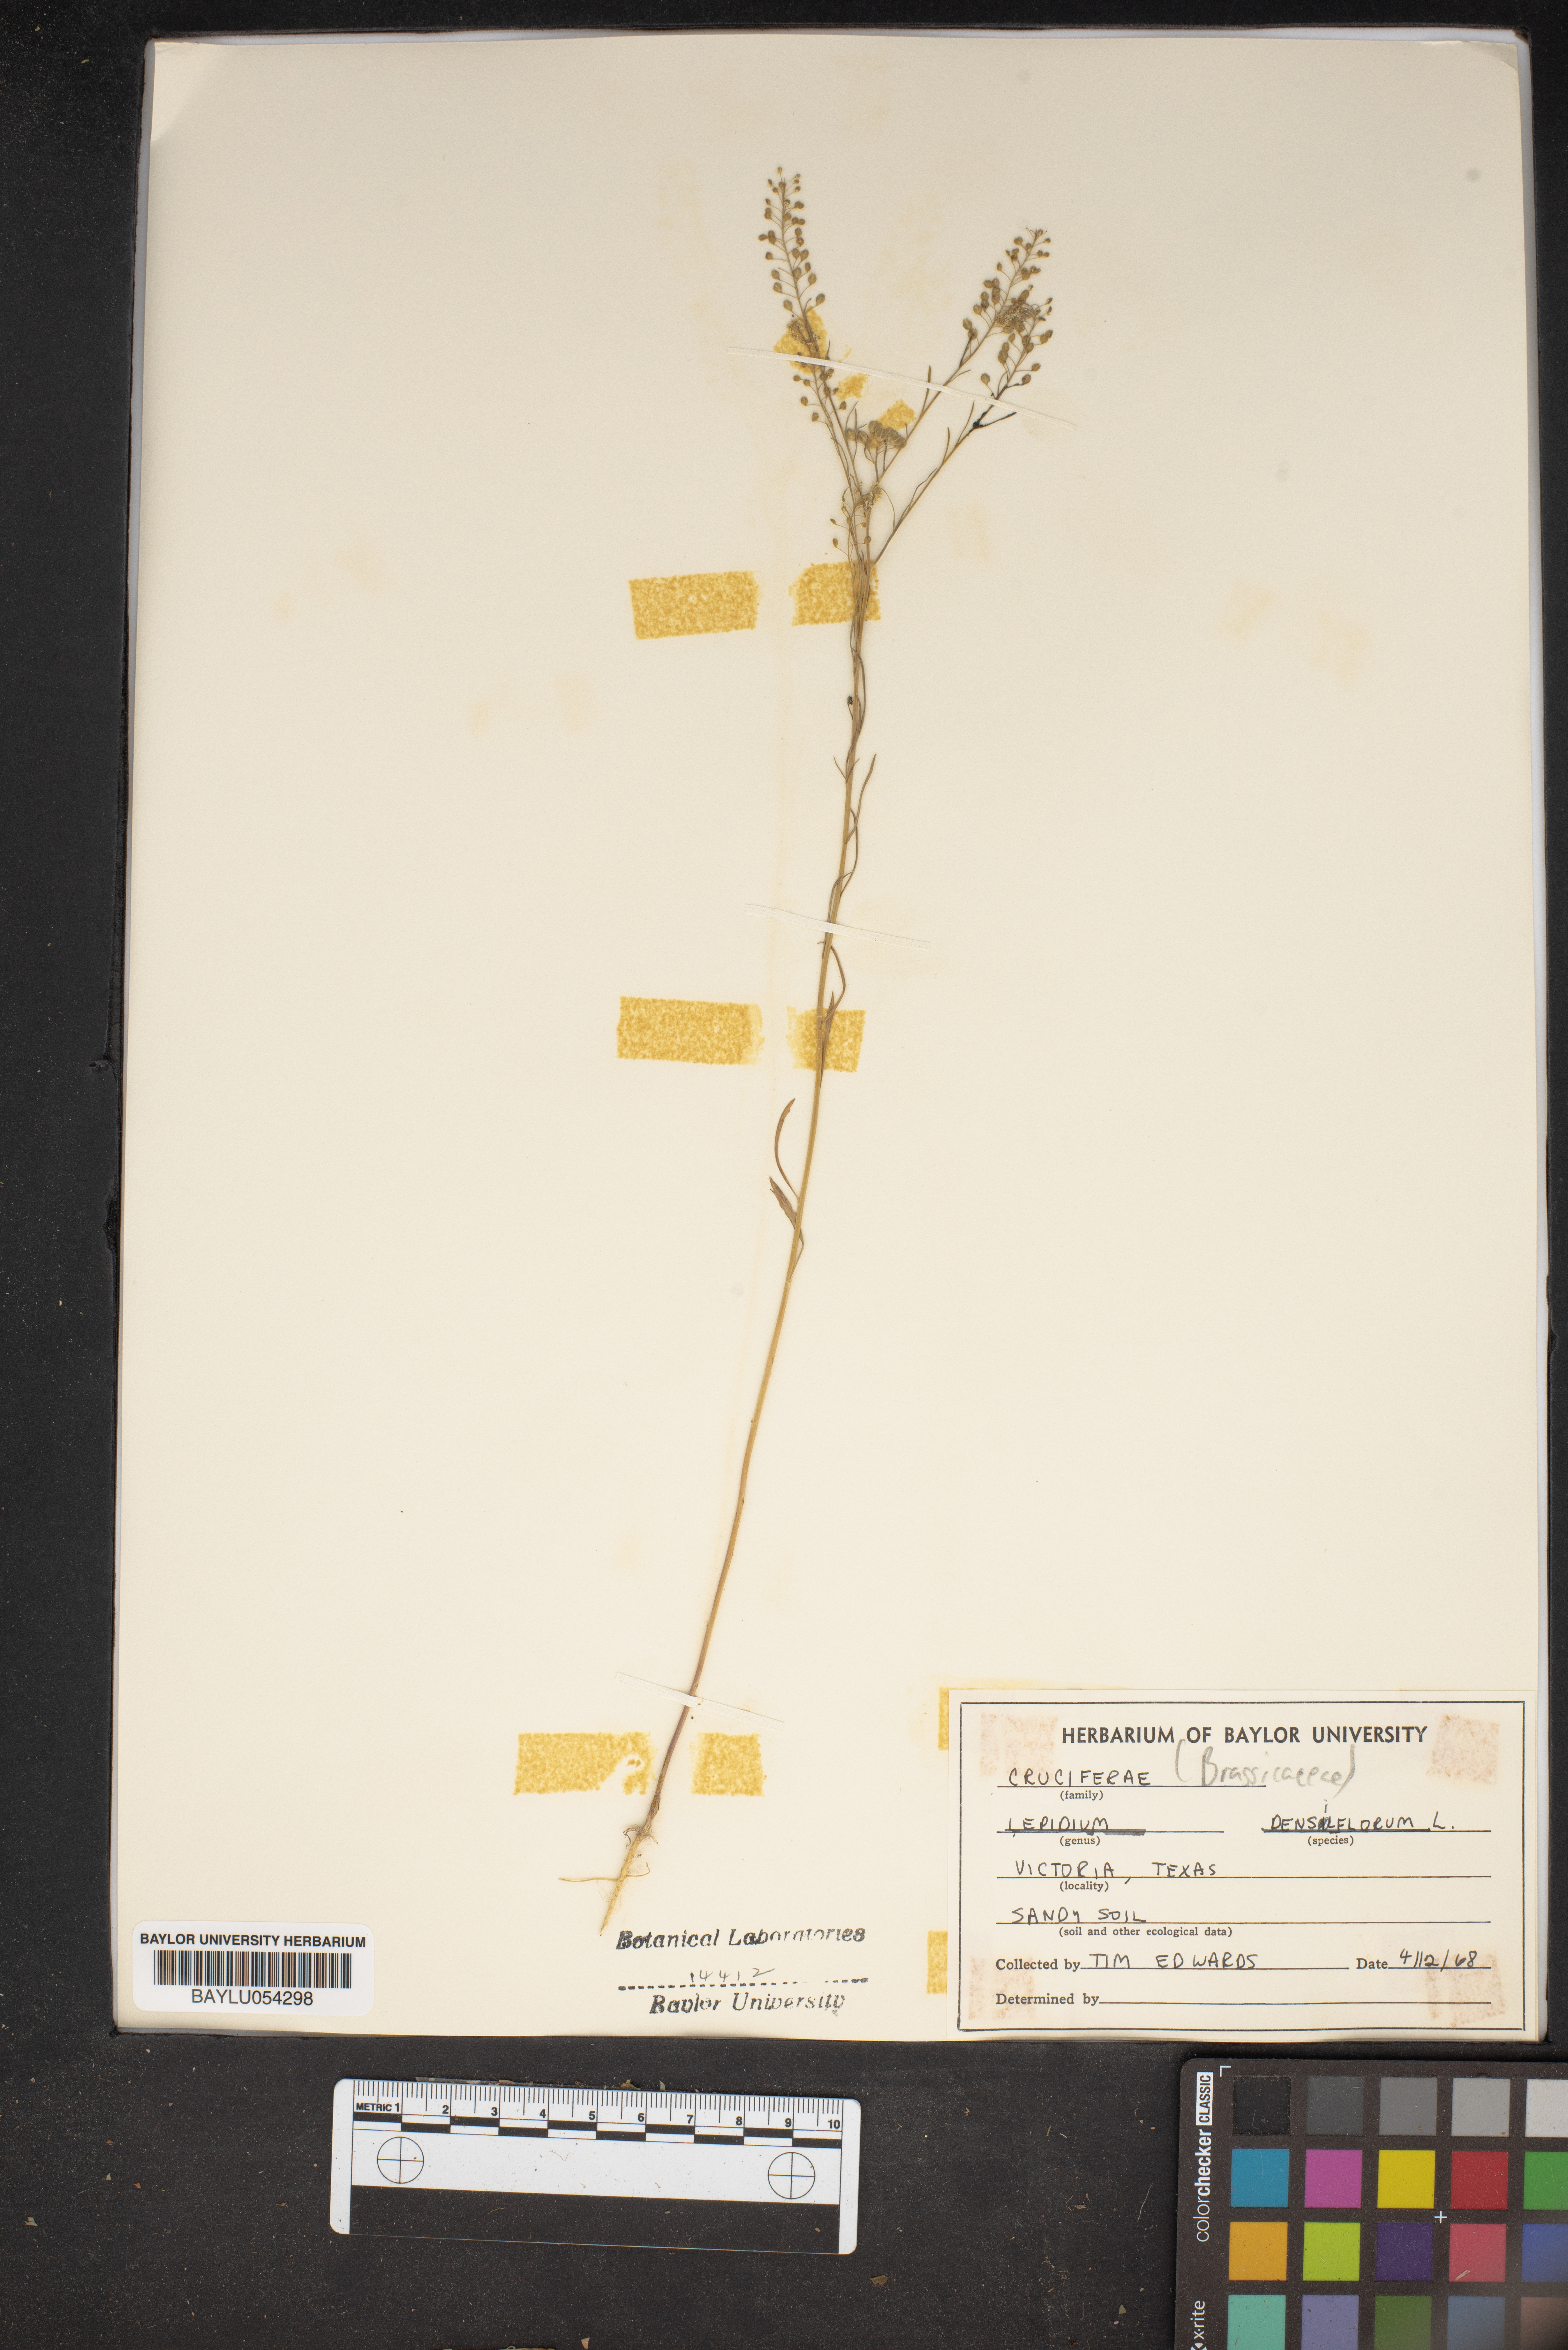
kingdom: Plantae
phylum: Tracheophyta
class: Magnoliopsida
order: Brassicales
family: Brassicaceae
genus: Lepidium
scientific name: Lepidium densiflorum
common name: Miner's pepperwort
